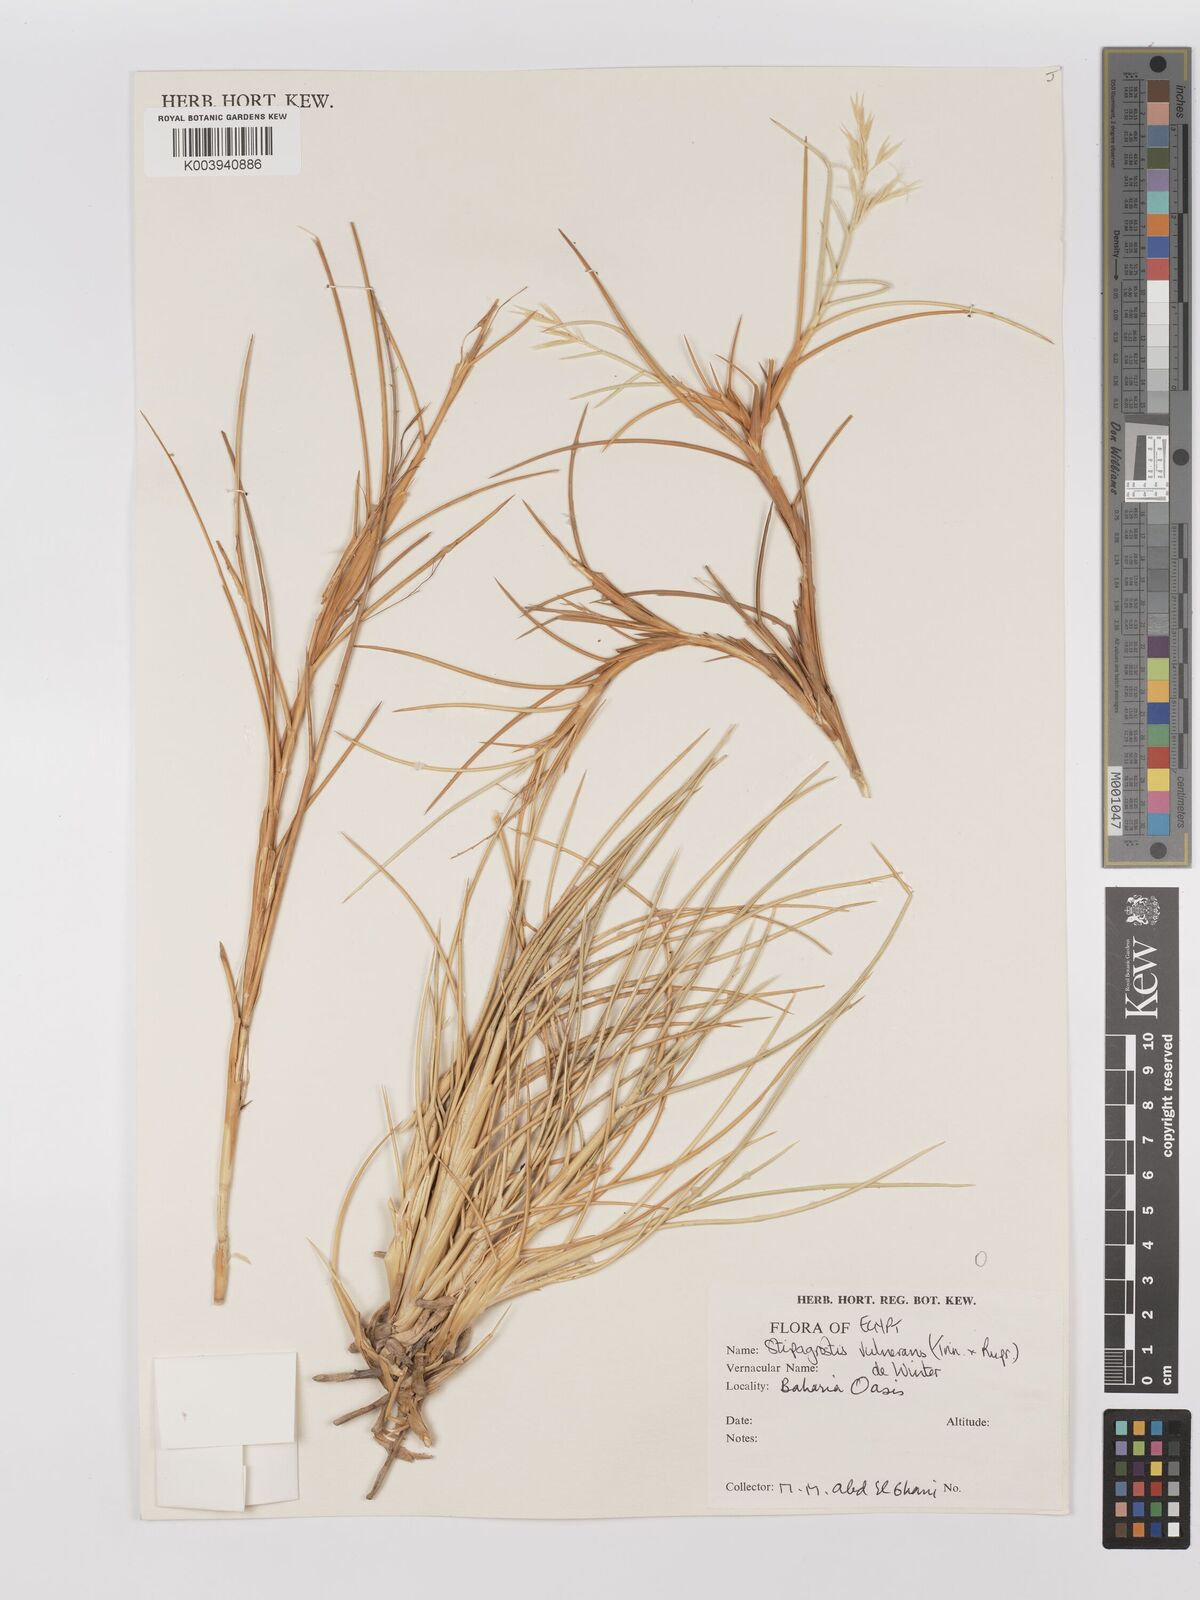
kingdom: Plantae
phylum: Tracheophyta
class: Liliopsida
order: Poales
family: Poaceae
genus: Stipagrostis
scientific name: Stipagrostis vulnerans
